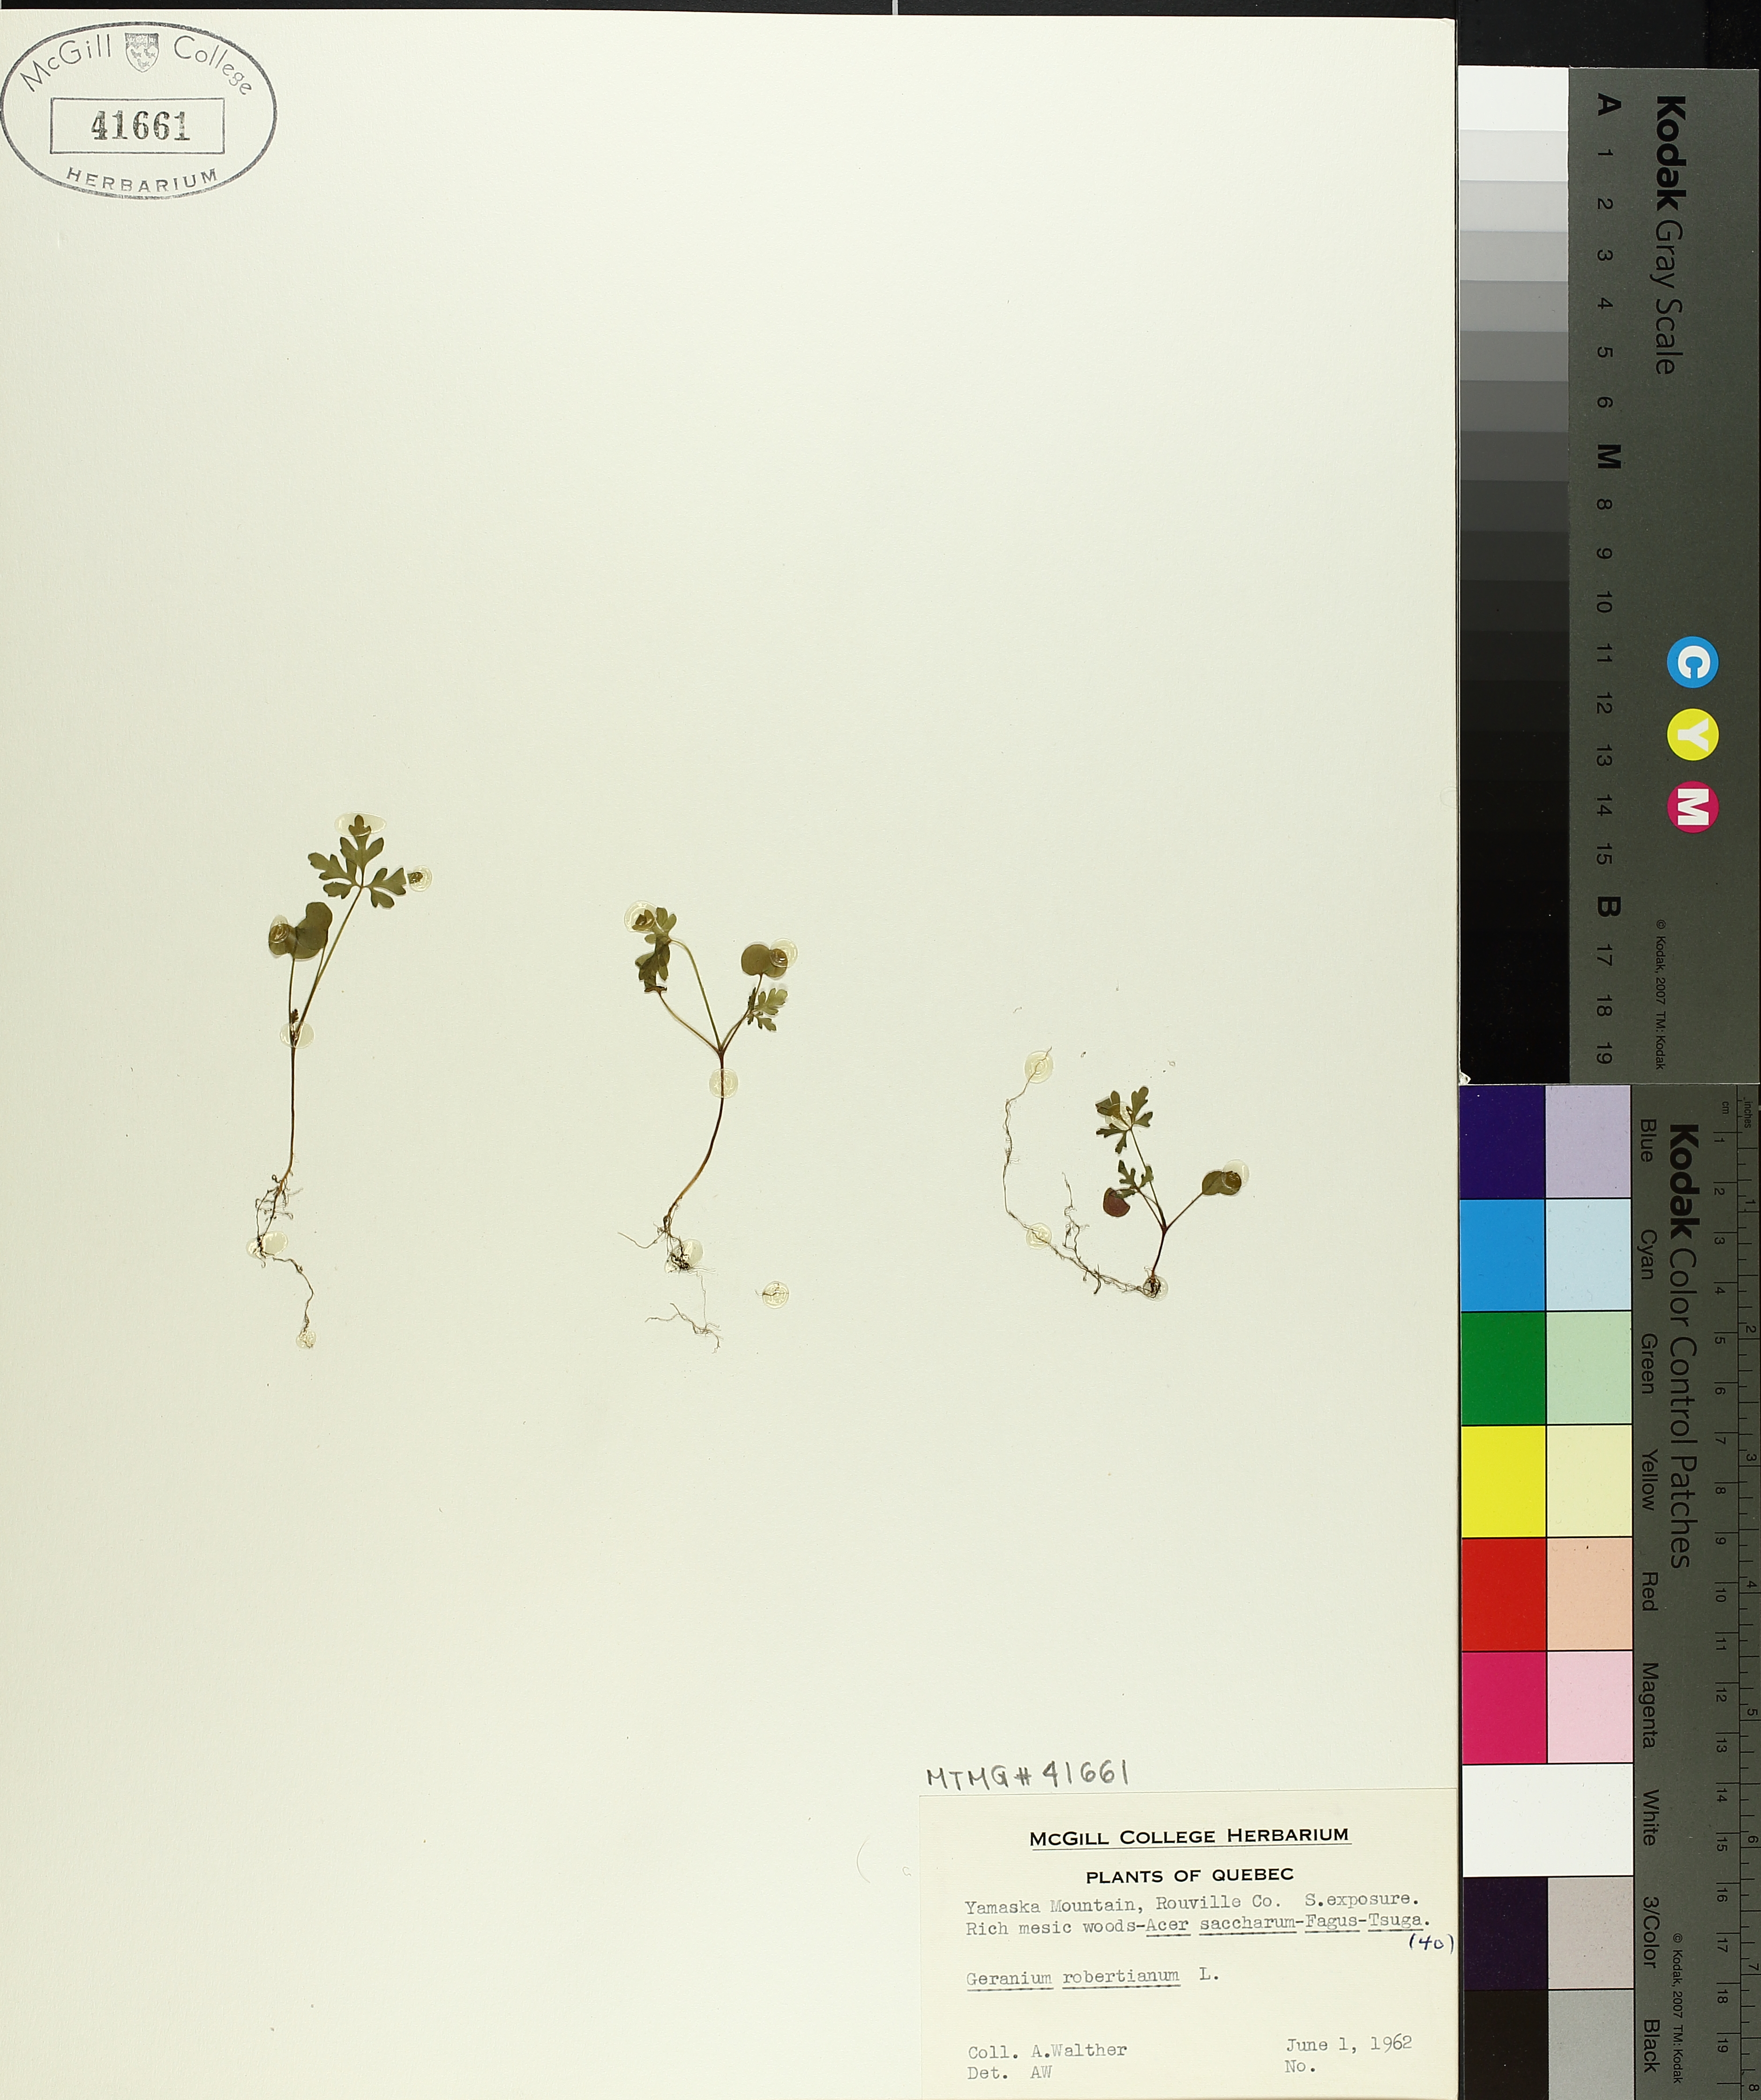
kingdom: Plantae
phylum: Tracheophyta
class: Magnoliopsida
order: Geraniales
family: Geraniaceae
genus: Geranium
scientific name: Geranium robertianum
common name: Herb-robert
